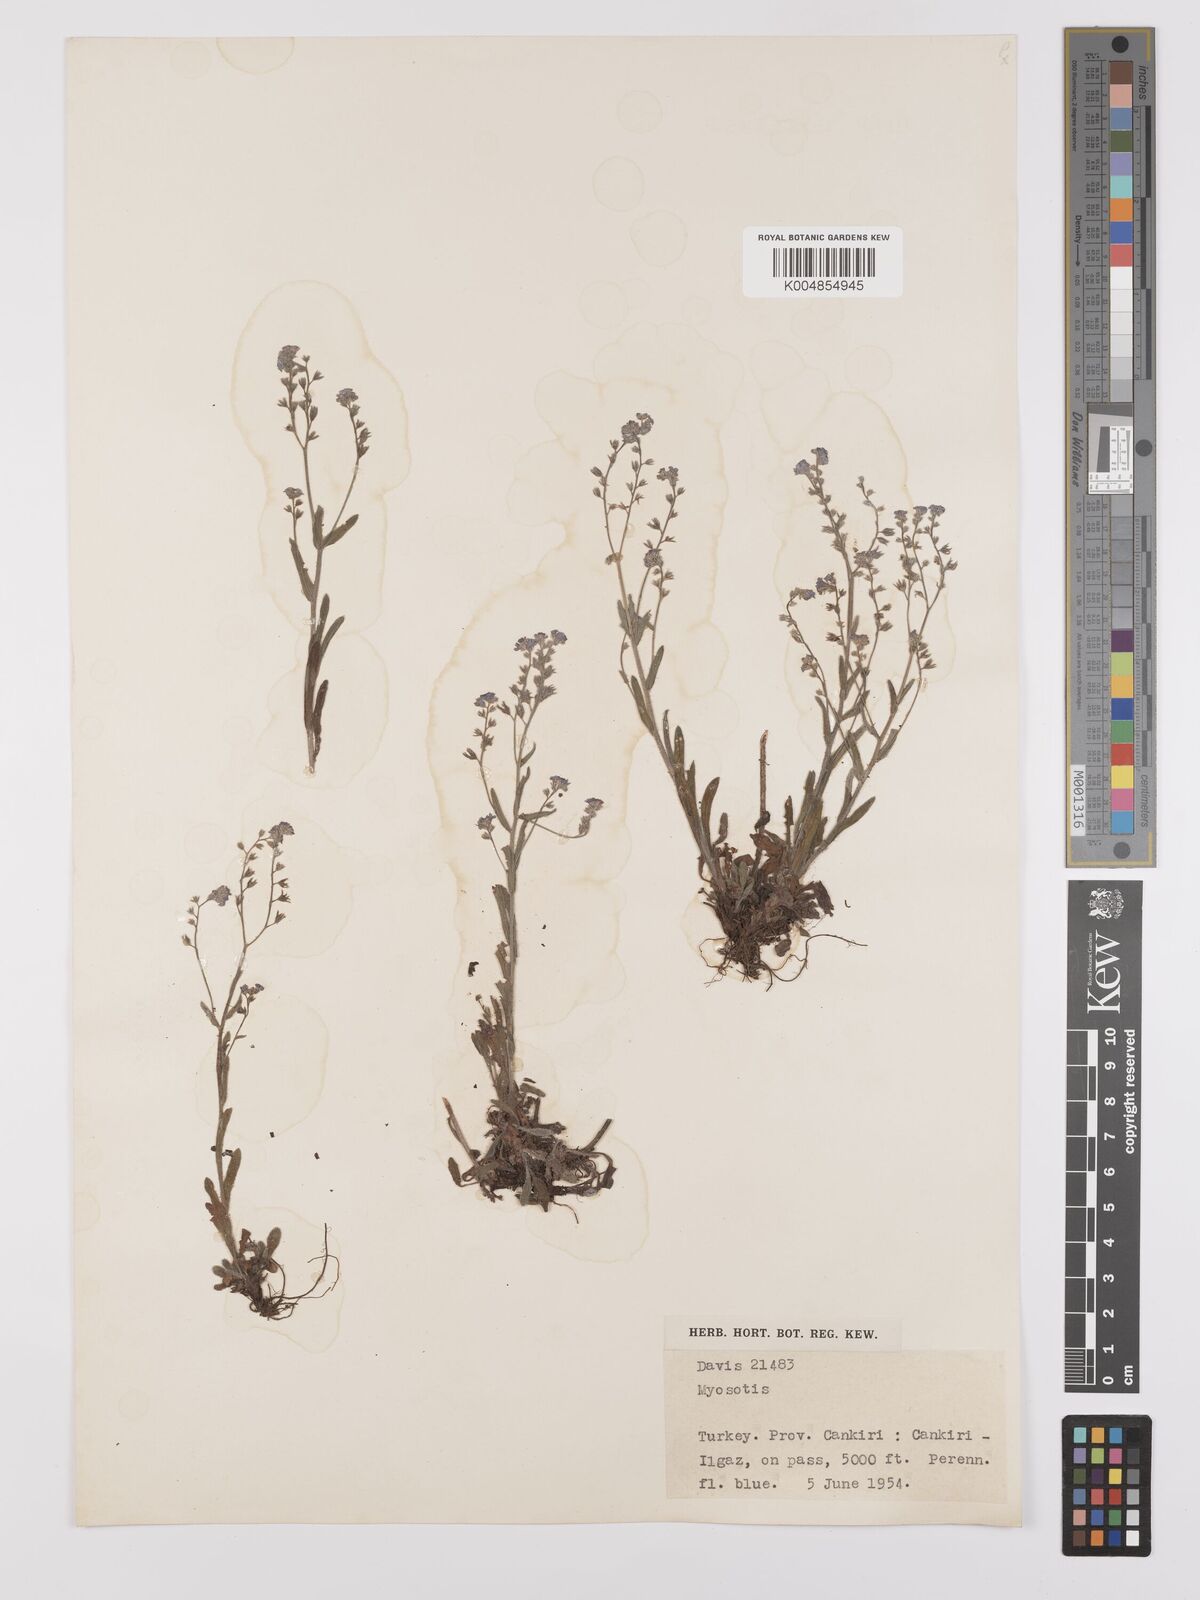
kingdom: Plantae
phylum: Tracheophyta
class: Magnoliopsida
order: Boraginales
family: Boraginaceae
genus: Myosotis
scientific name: Myosotis
